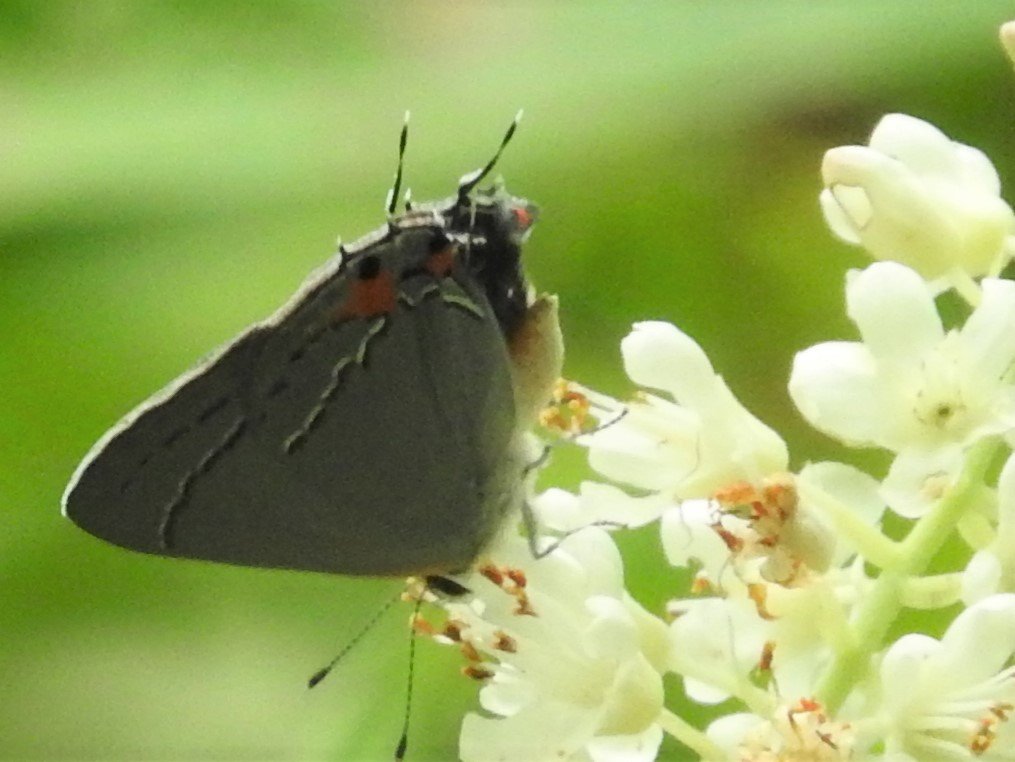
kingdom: Animalia
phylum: Arthropoda
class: Insecta
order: Lepidoptera
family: Lycaenidae
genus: Strymon
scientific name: Strymon melinus
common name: Gray Hairstreak
